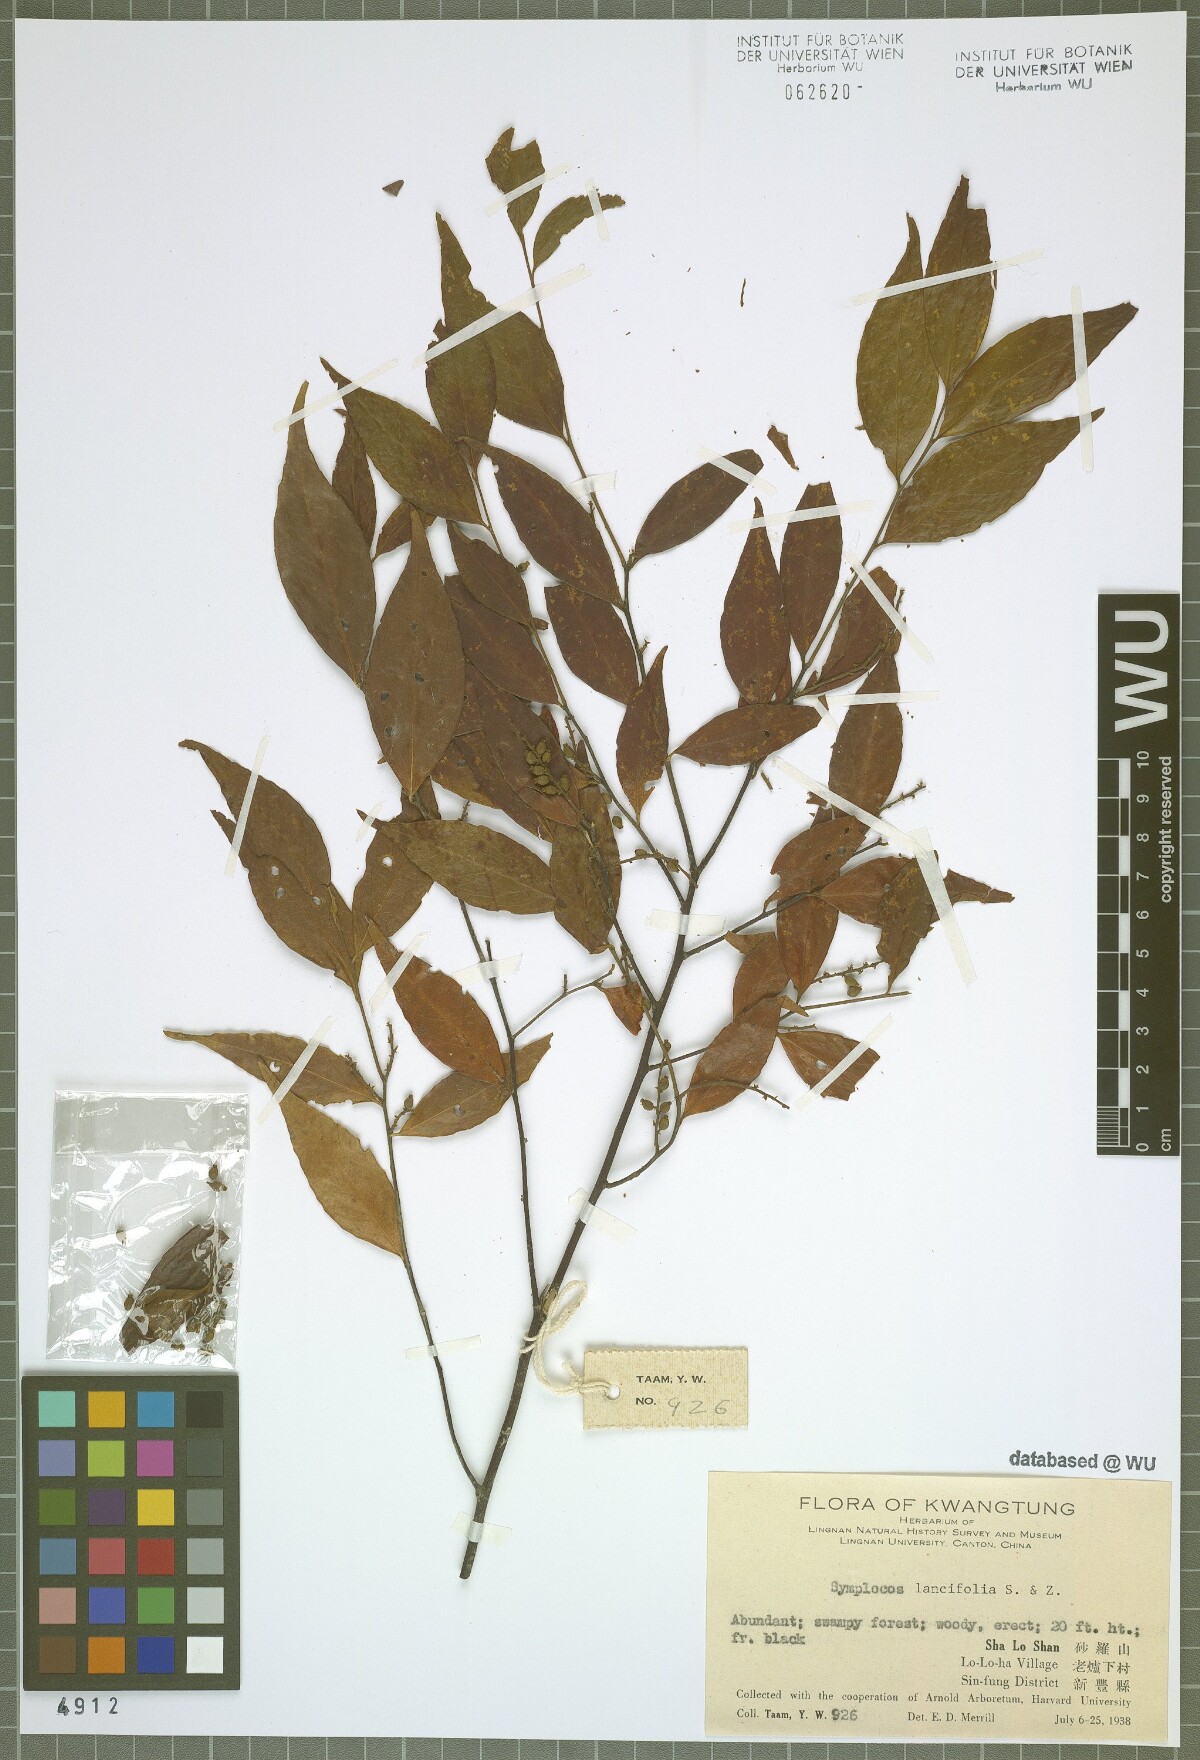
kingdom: Plantae
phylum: Tracheophyta
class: Magnoliopsida
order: Ericales
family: Symplocaceae
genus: Symplocos
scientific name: Symplocos lancifolia
